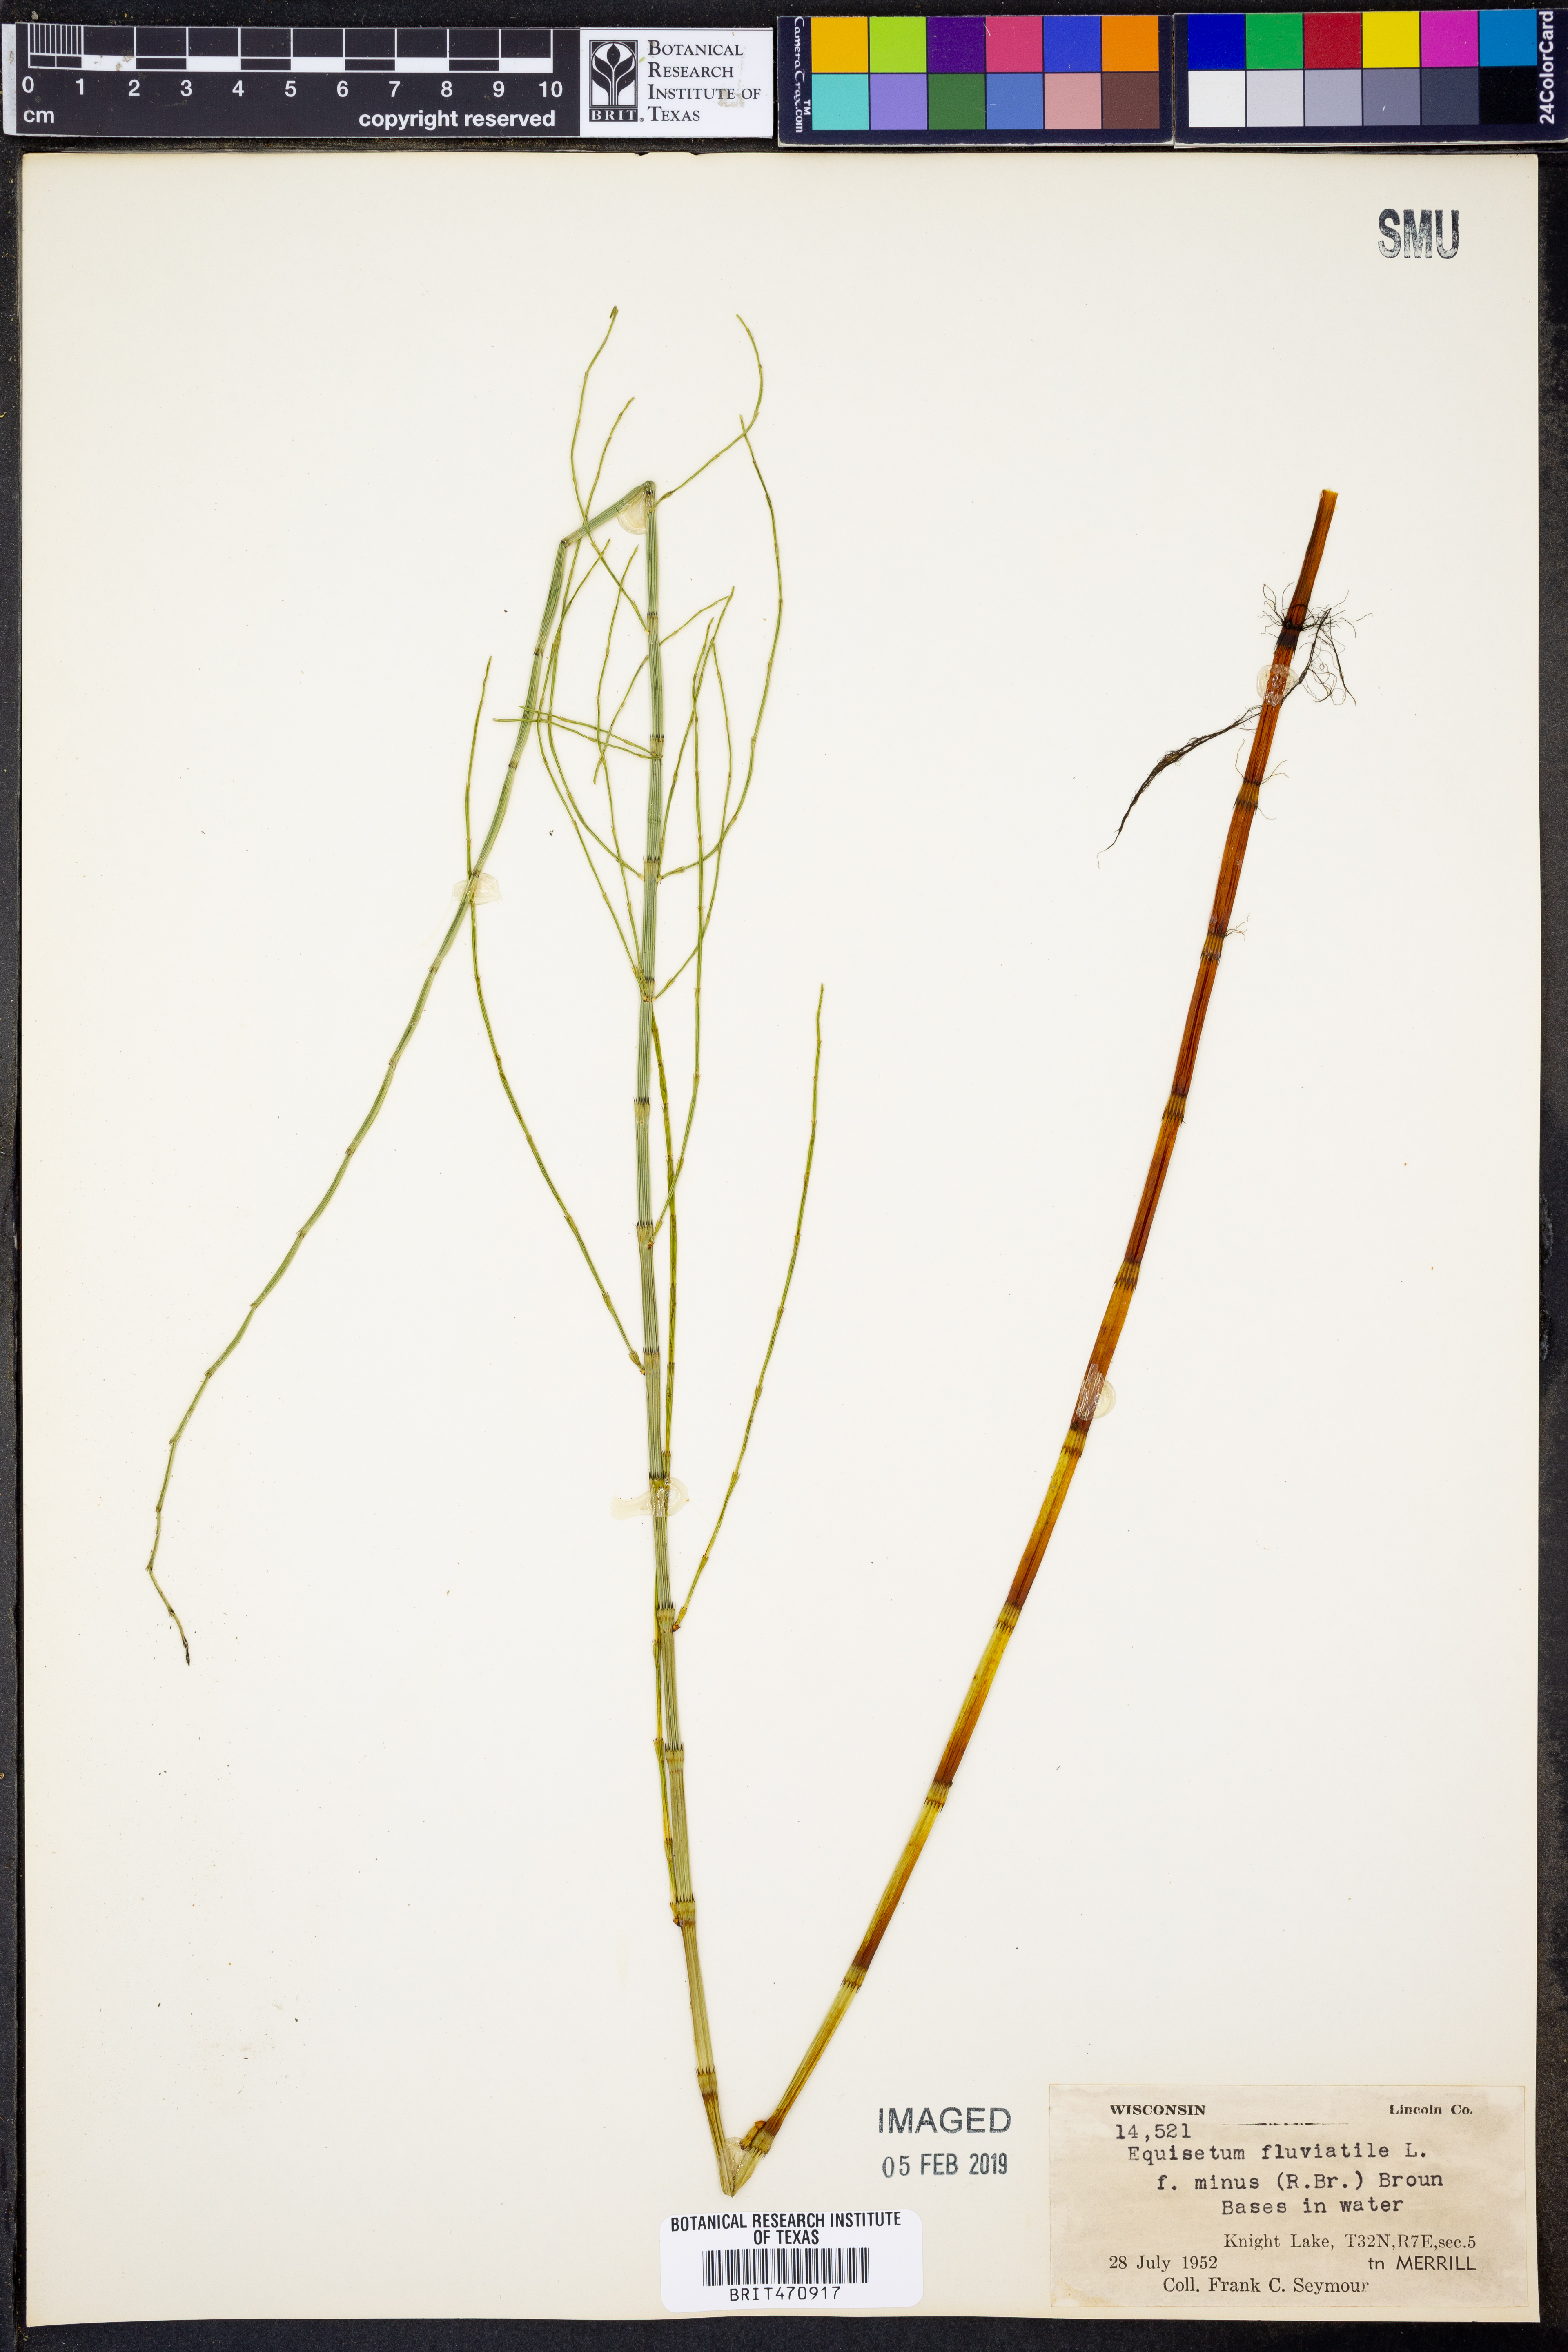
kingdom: Plantae
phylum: Tracheophyta
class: Polypodiopsida
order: Equisetales
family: Equisetaceae
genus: Equisetum
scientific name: Equisetum fluviatile
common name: Water horsetail
